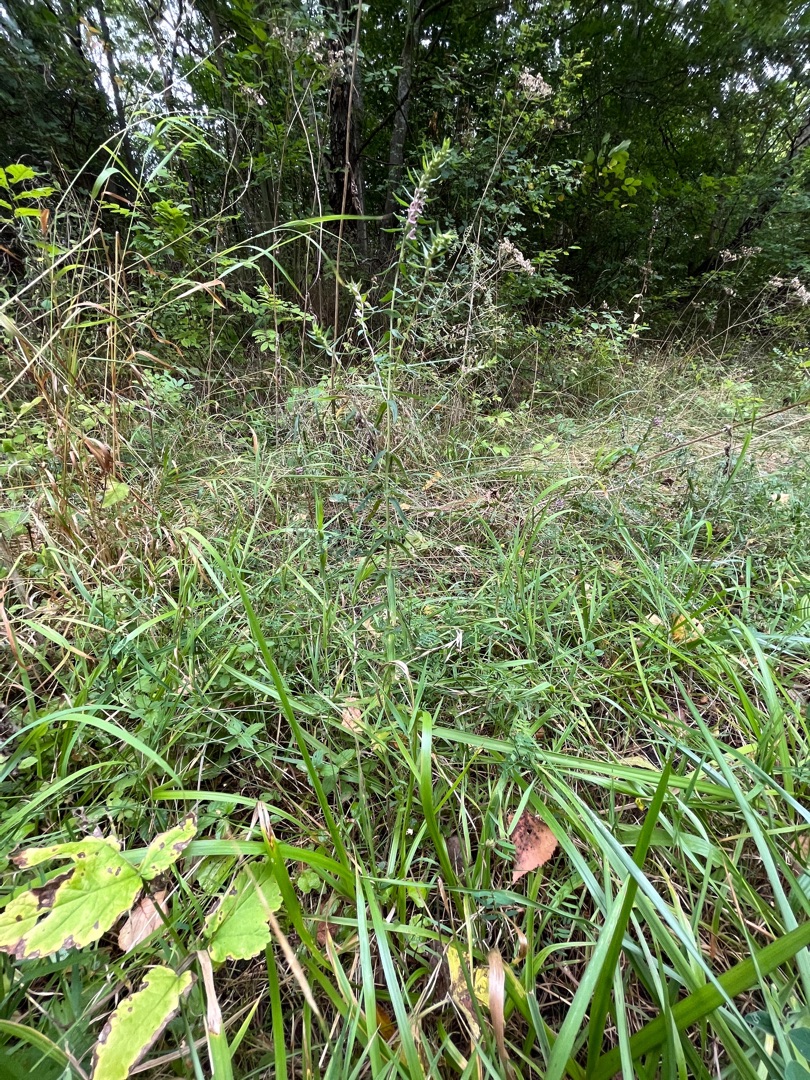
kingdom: Plantae
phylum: Tracheophyta
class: Magnoliopsida
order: Lamiales
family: Orobanchaceae
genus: Odontites
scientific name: Odontites vernus
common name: Mark-rødtop
